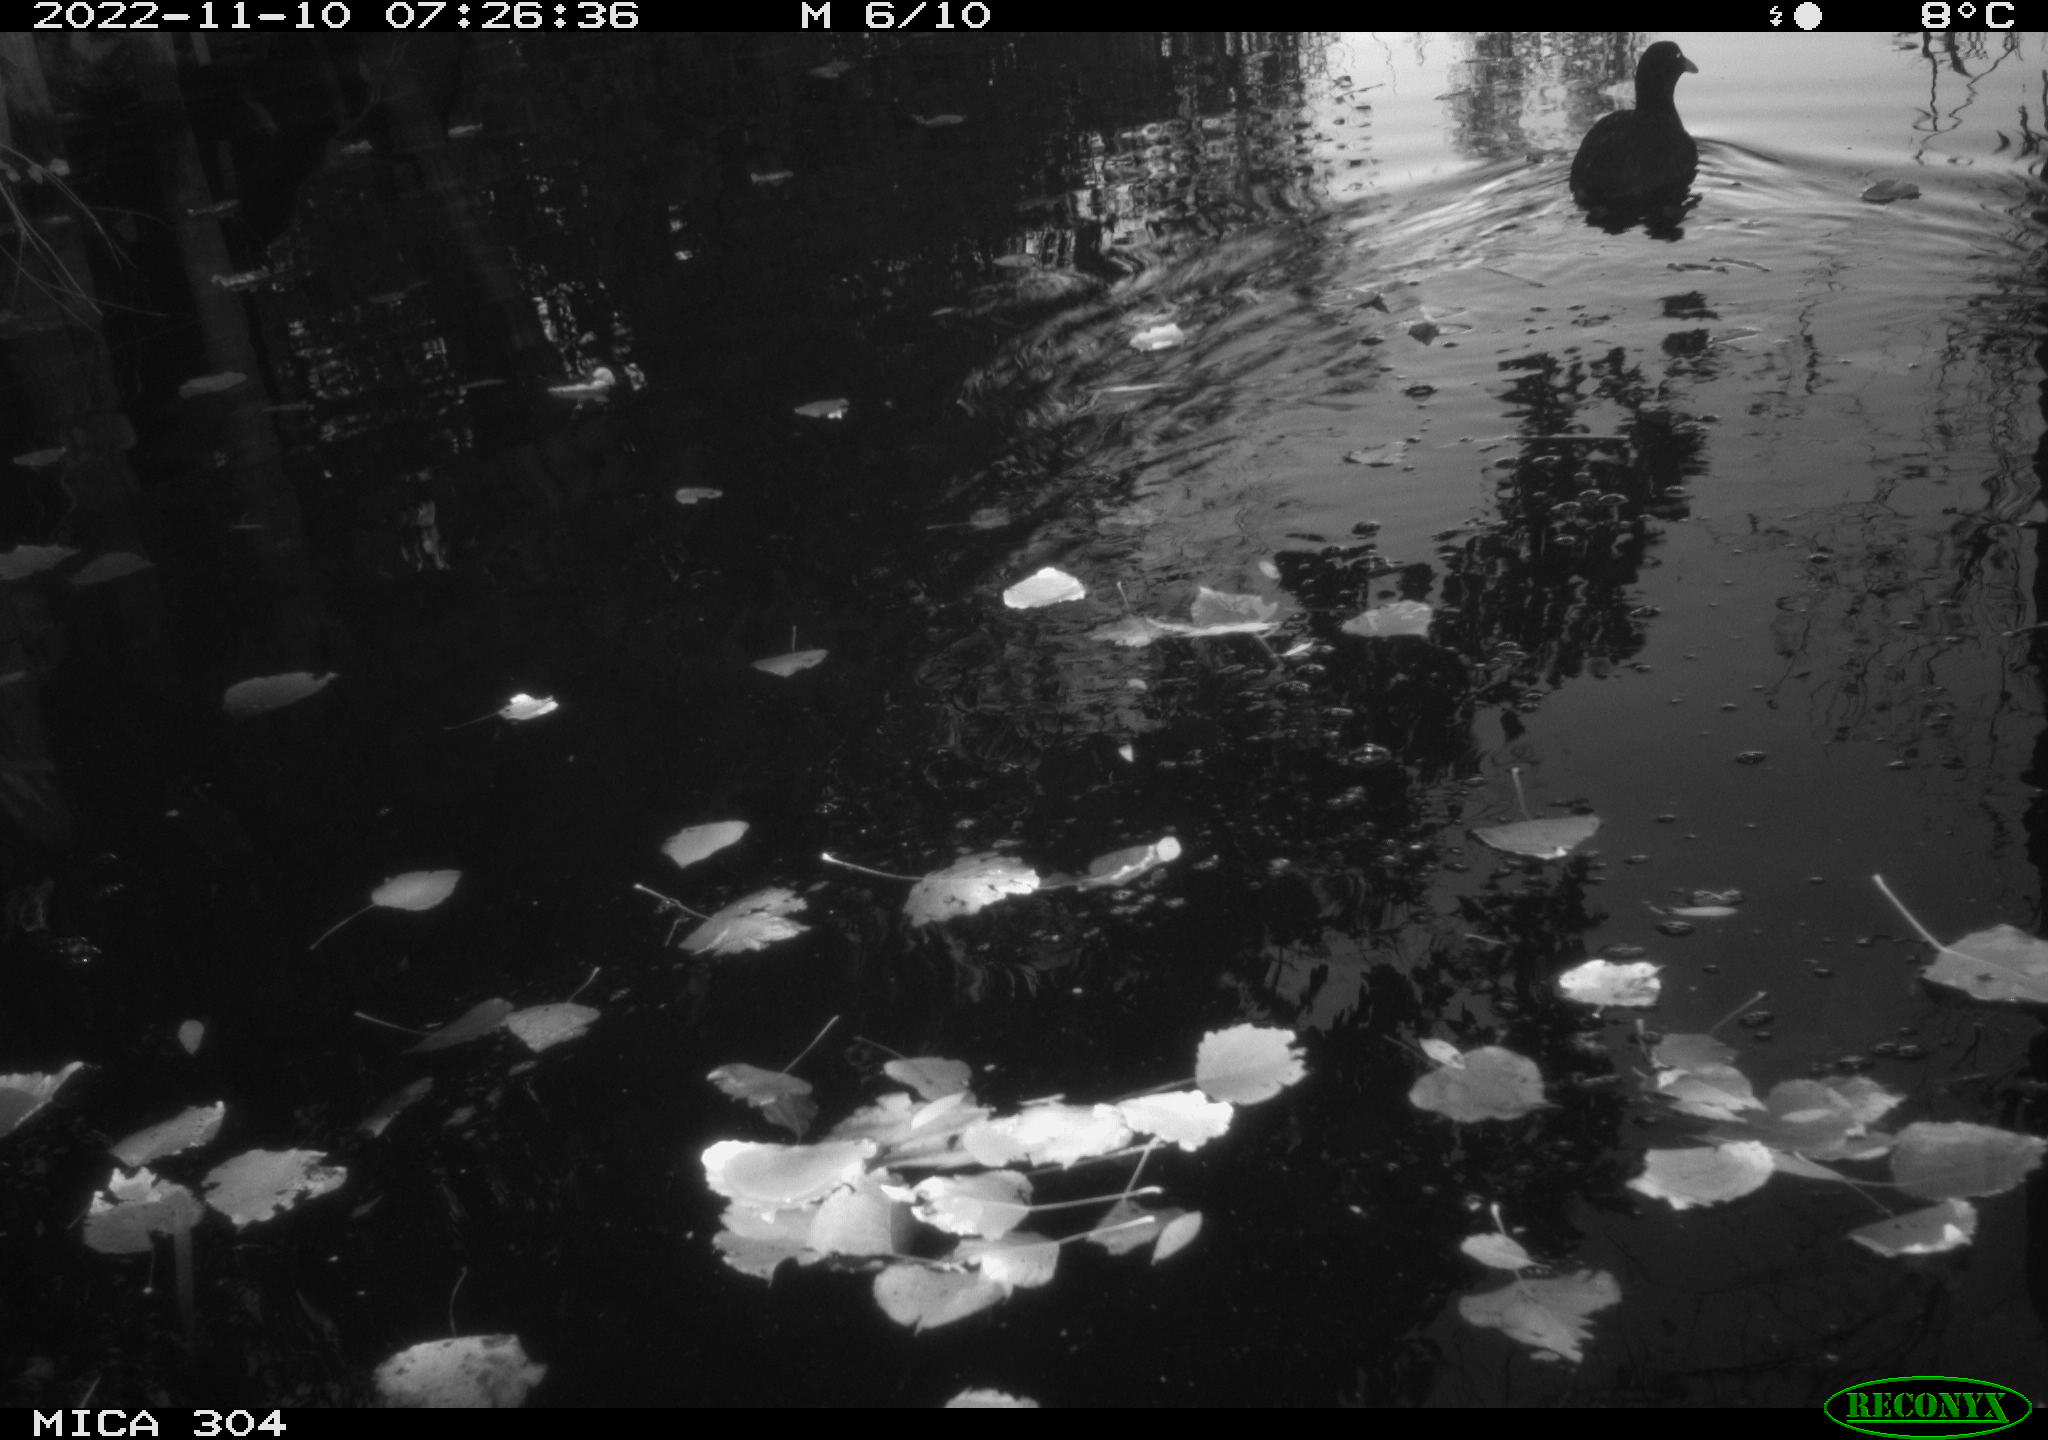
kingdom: Animalia
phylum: Chordata
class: Aves
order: Anseriformes
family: Anatidae
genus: Anas
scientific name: Anas
